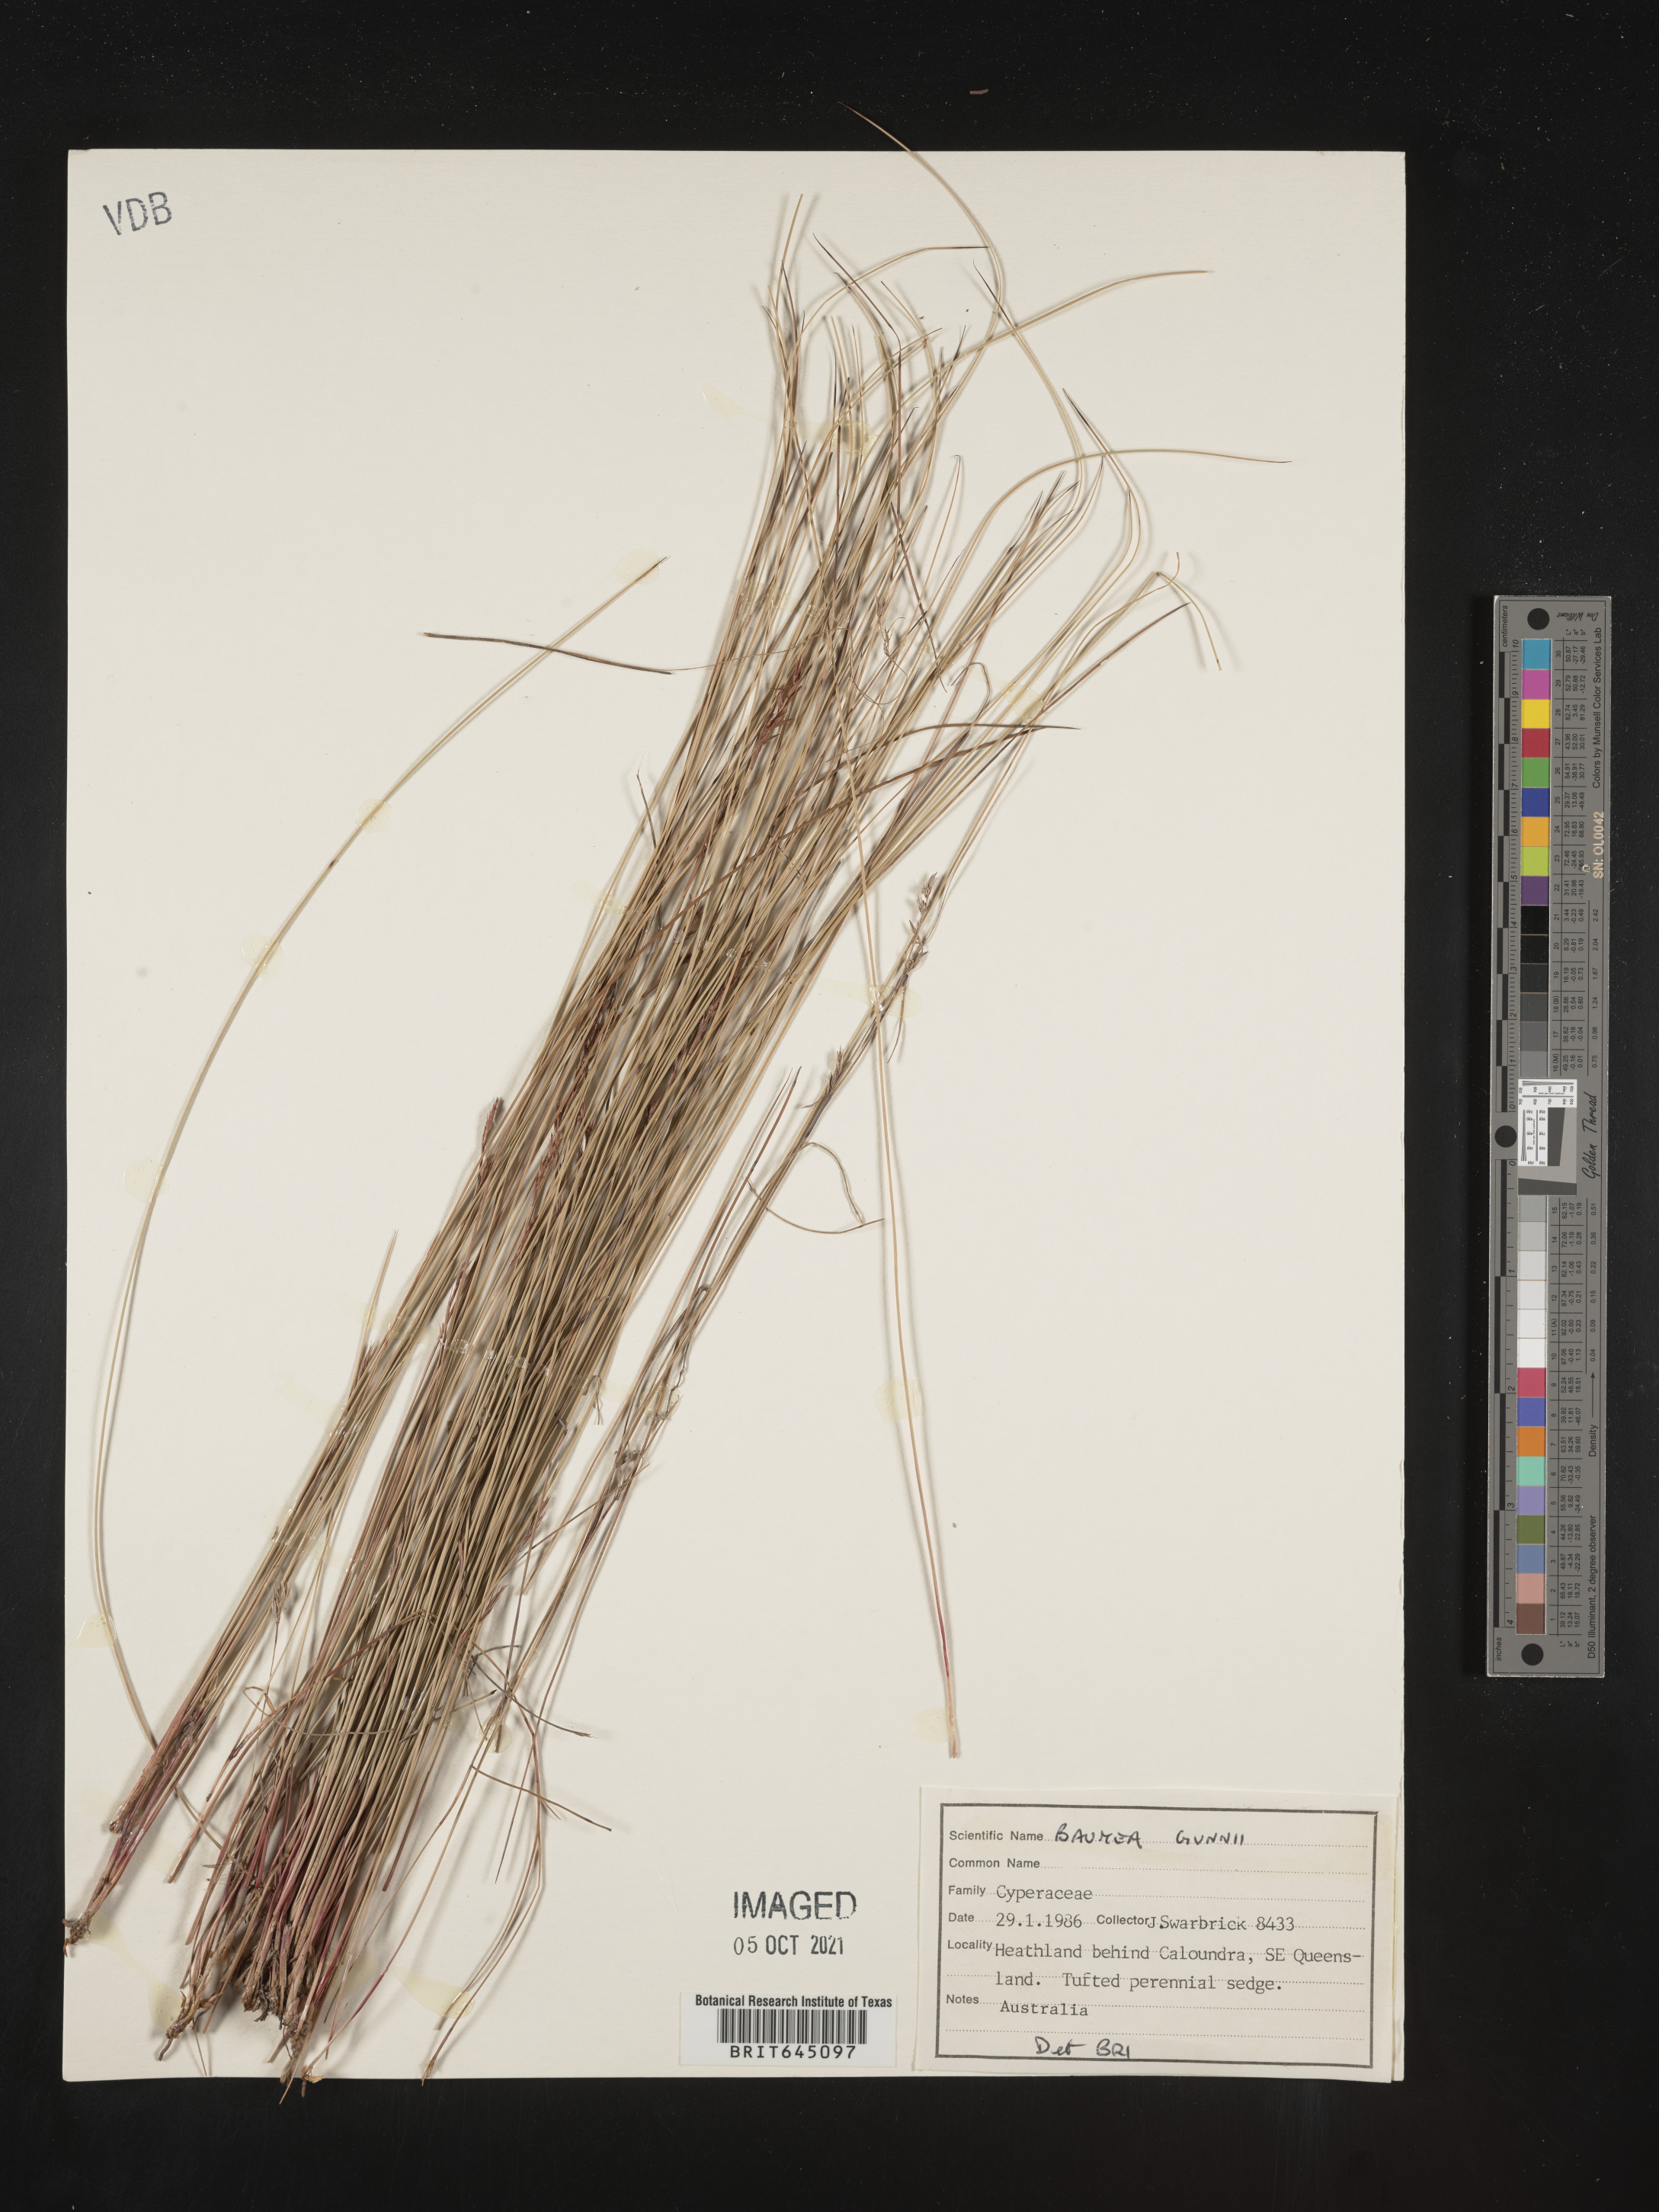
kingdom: Plantae
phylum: Tracheophyta
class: Liliopsida
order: Poales
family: Cyperaceae
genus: Machaerina
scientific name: Machaerina gunnii
